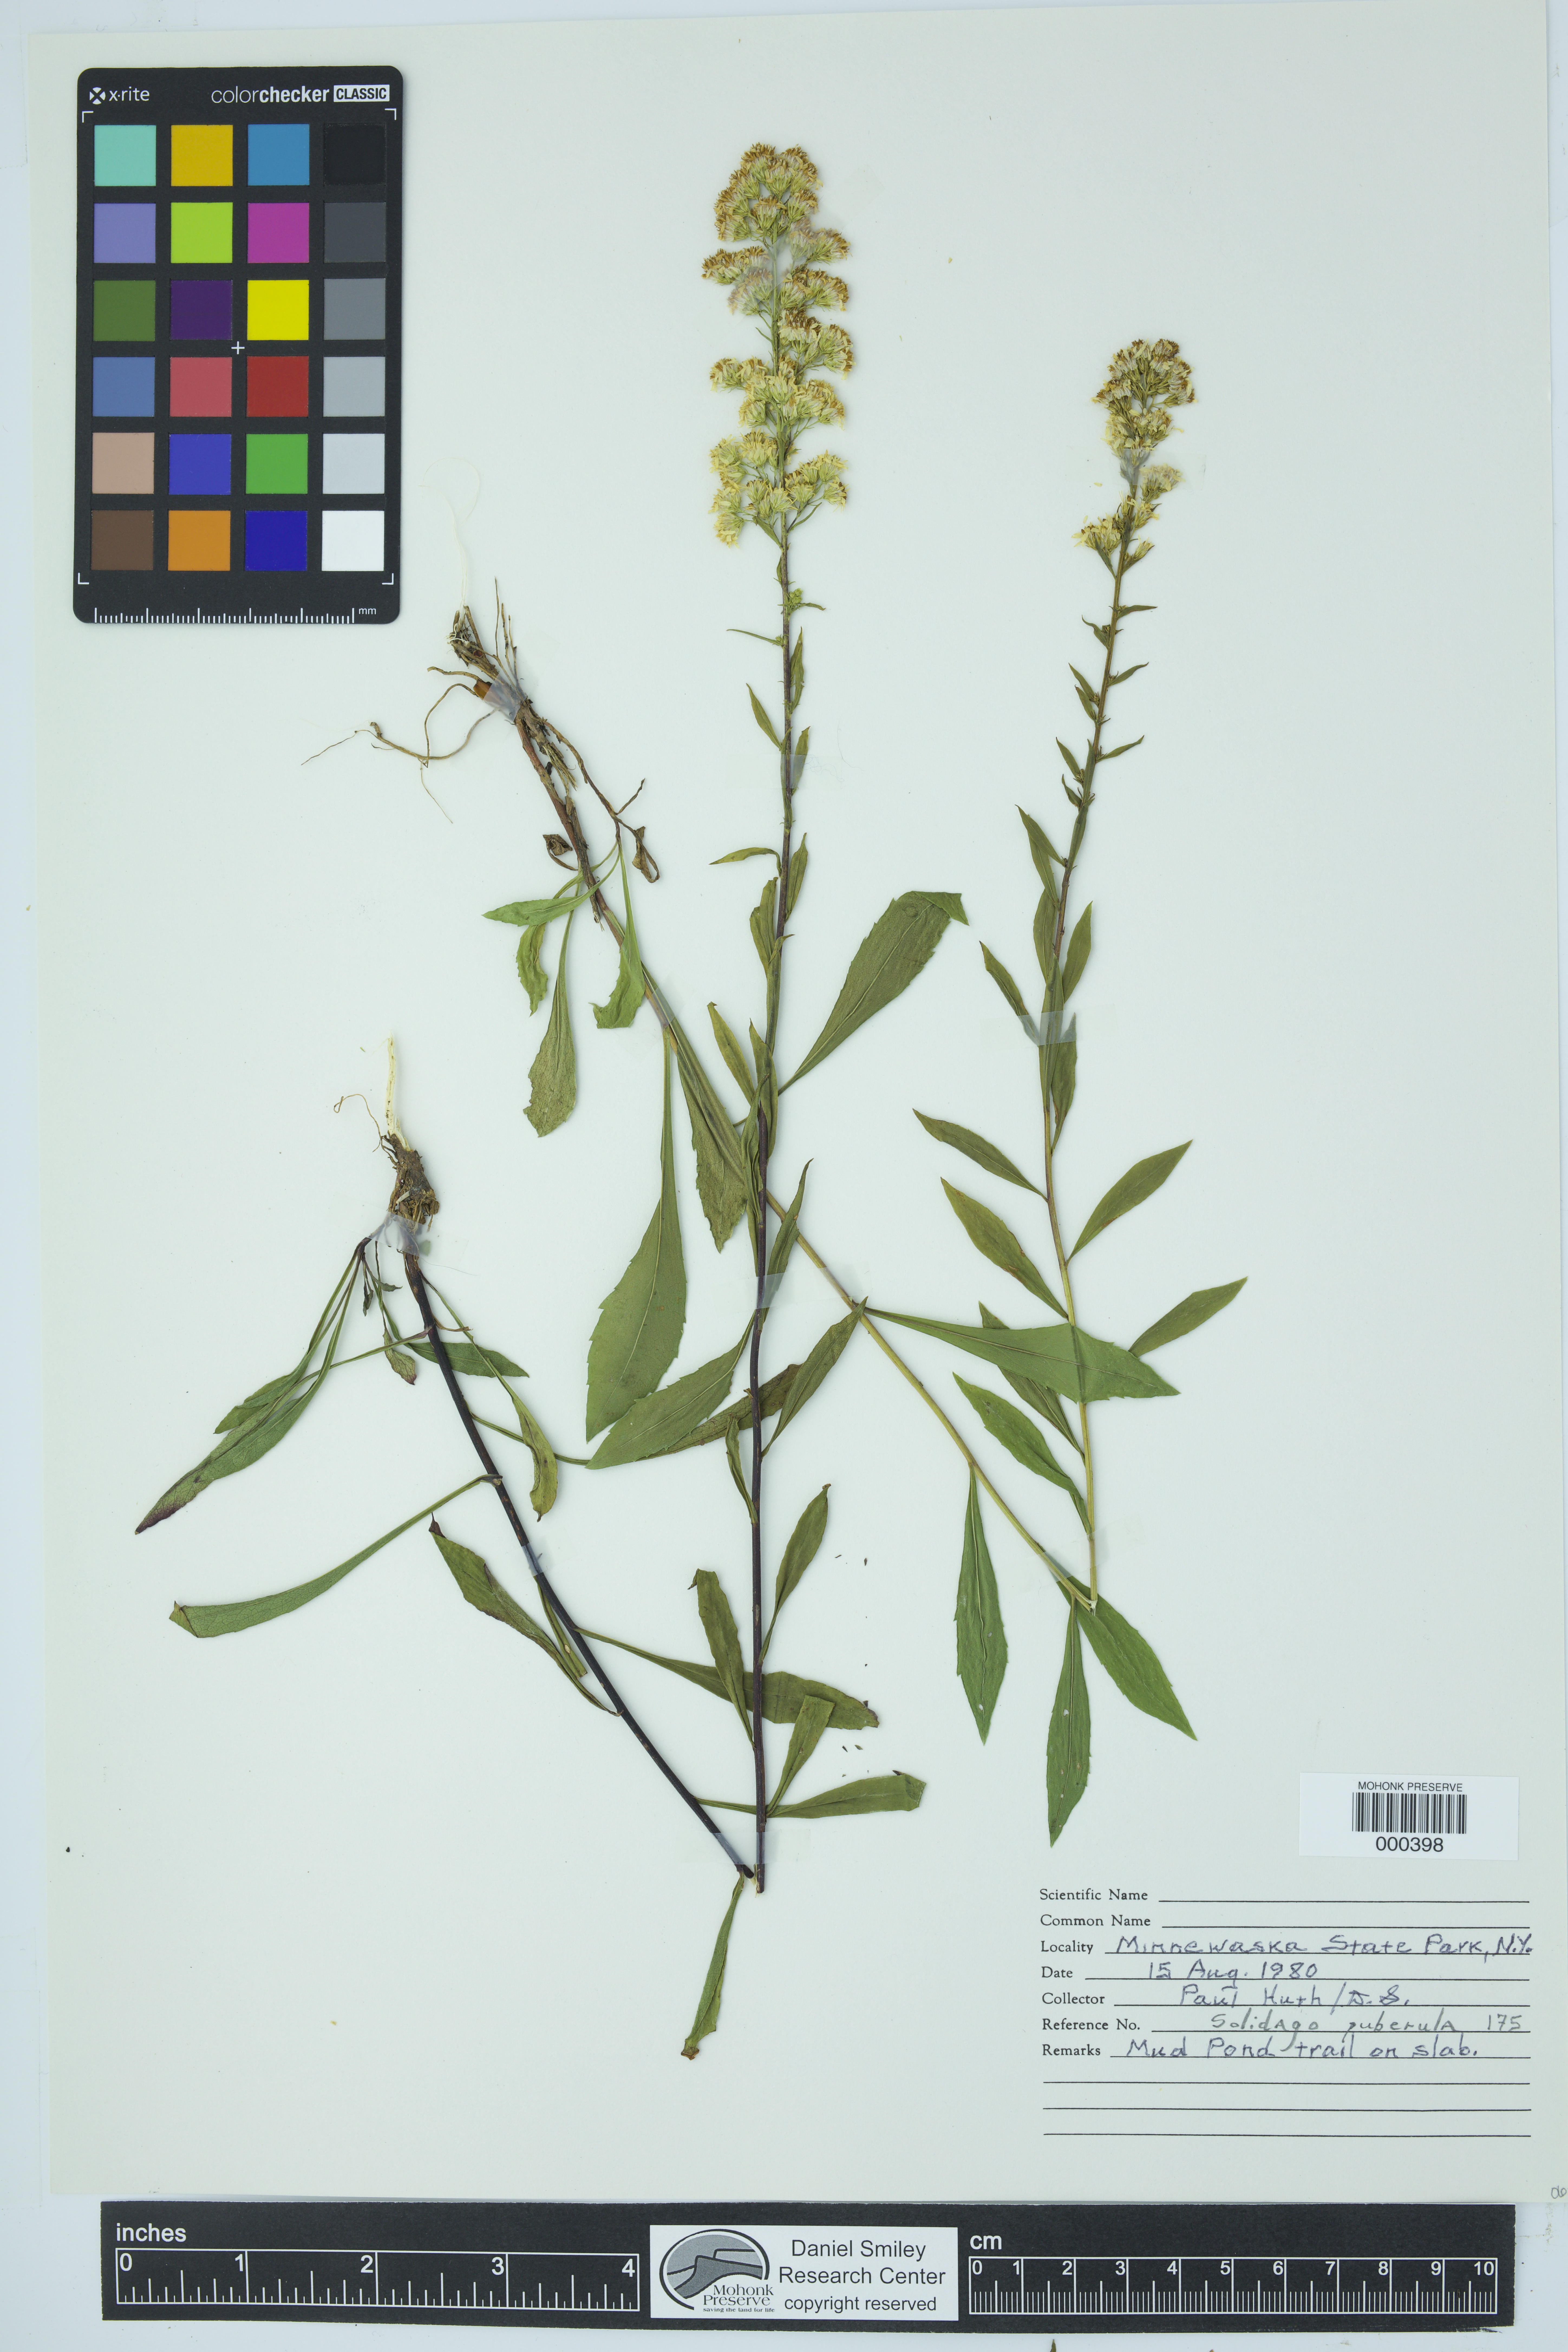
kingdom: Plantae
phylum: Tracheophyta
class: Magnoliopsida
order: Asterales
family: Asteraceae
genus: Solidago
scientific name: Solidago puberula
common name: Downy goldenrod
